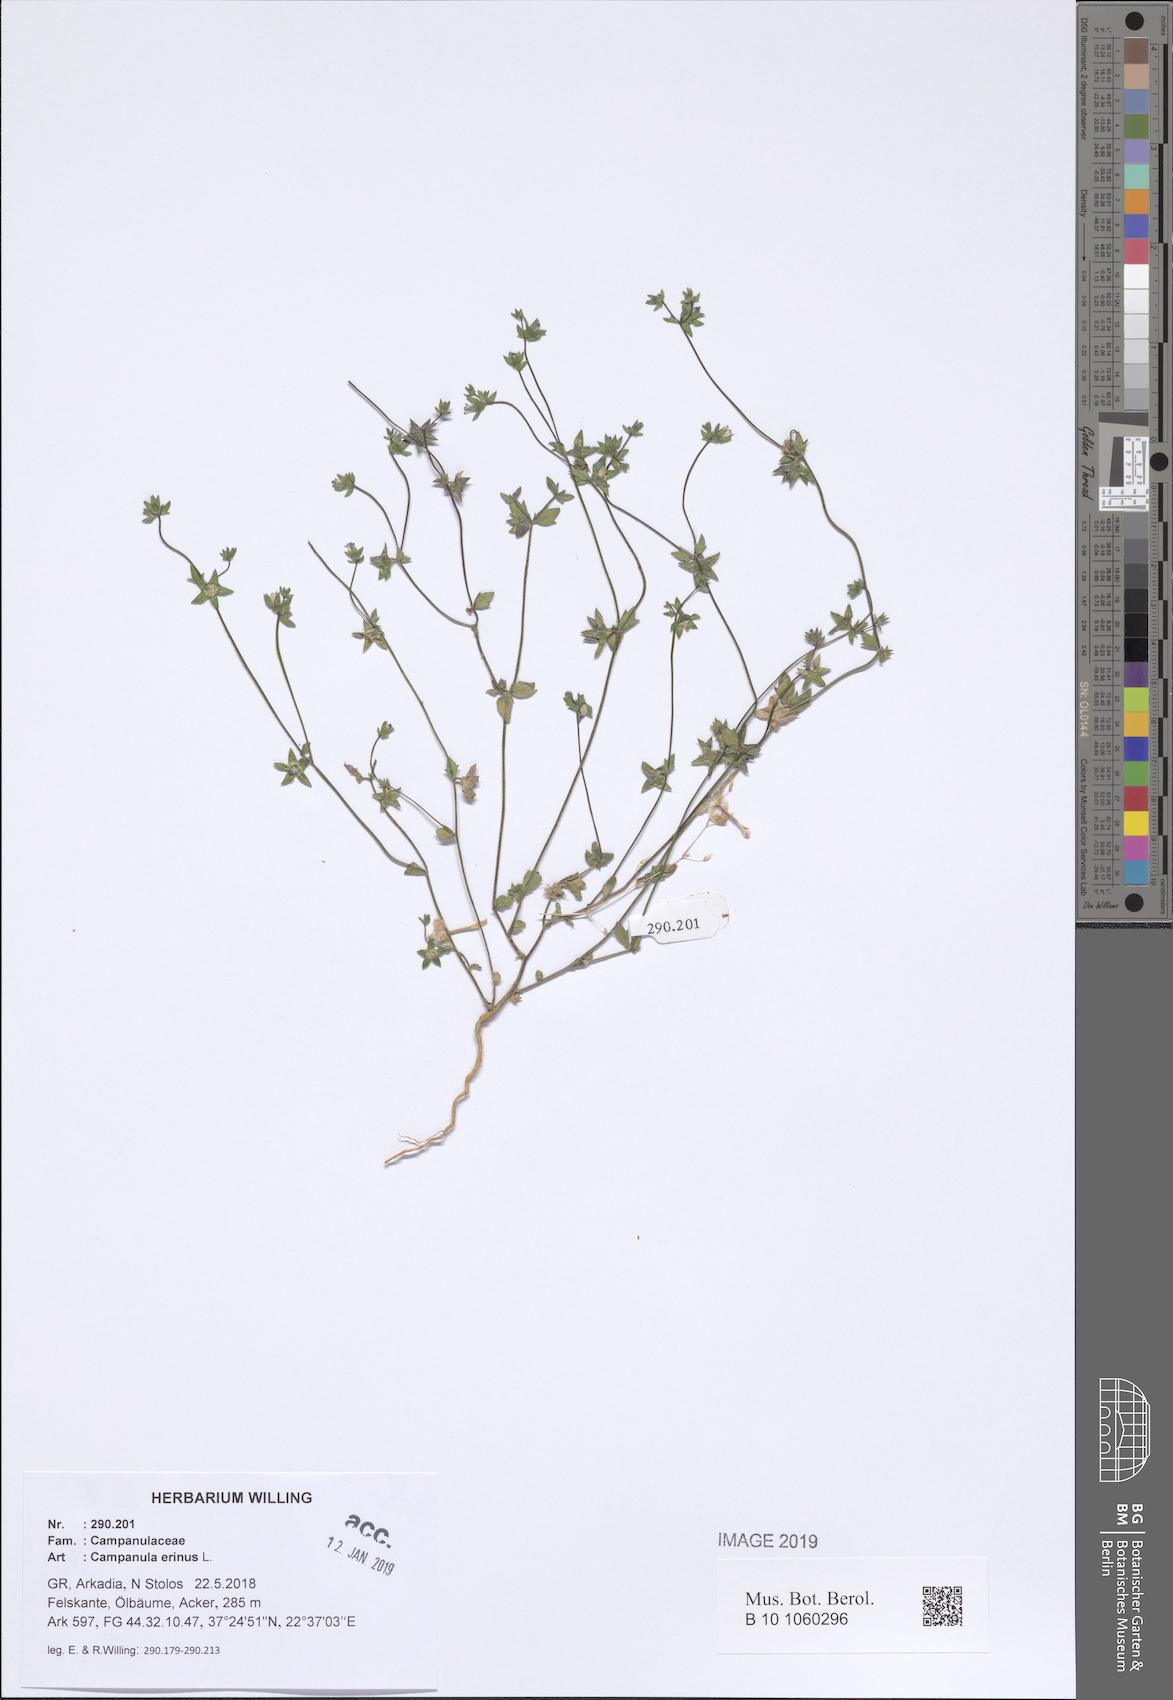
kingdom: Plantae
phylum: Tracheophyta
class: Magnoliopsida
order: Asterales
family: Campanulaceae
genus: Campanula
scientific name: Campanula erinus
